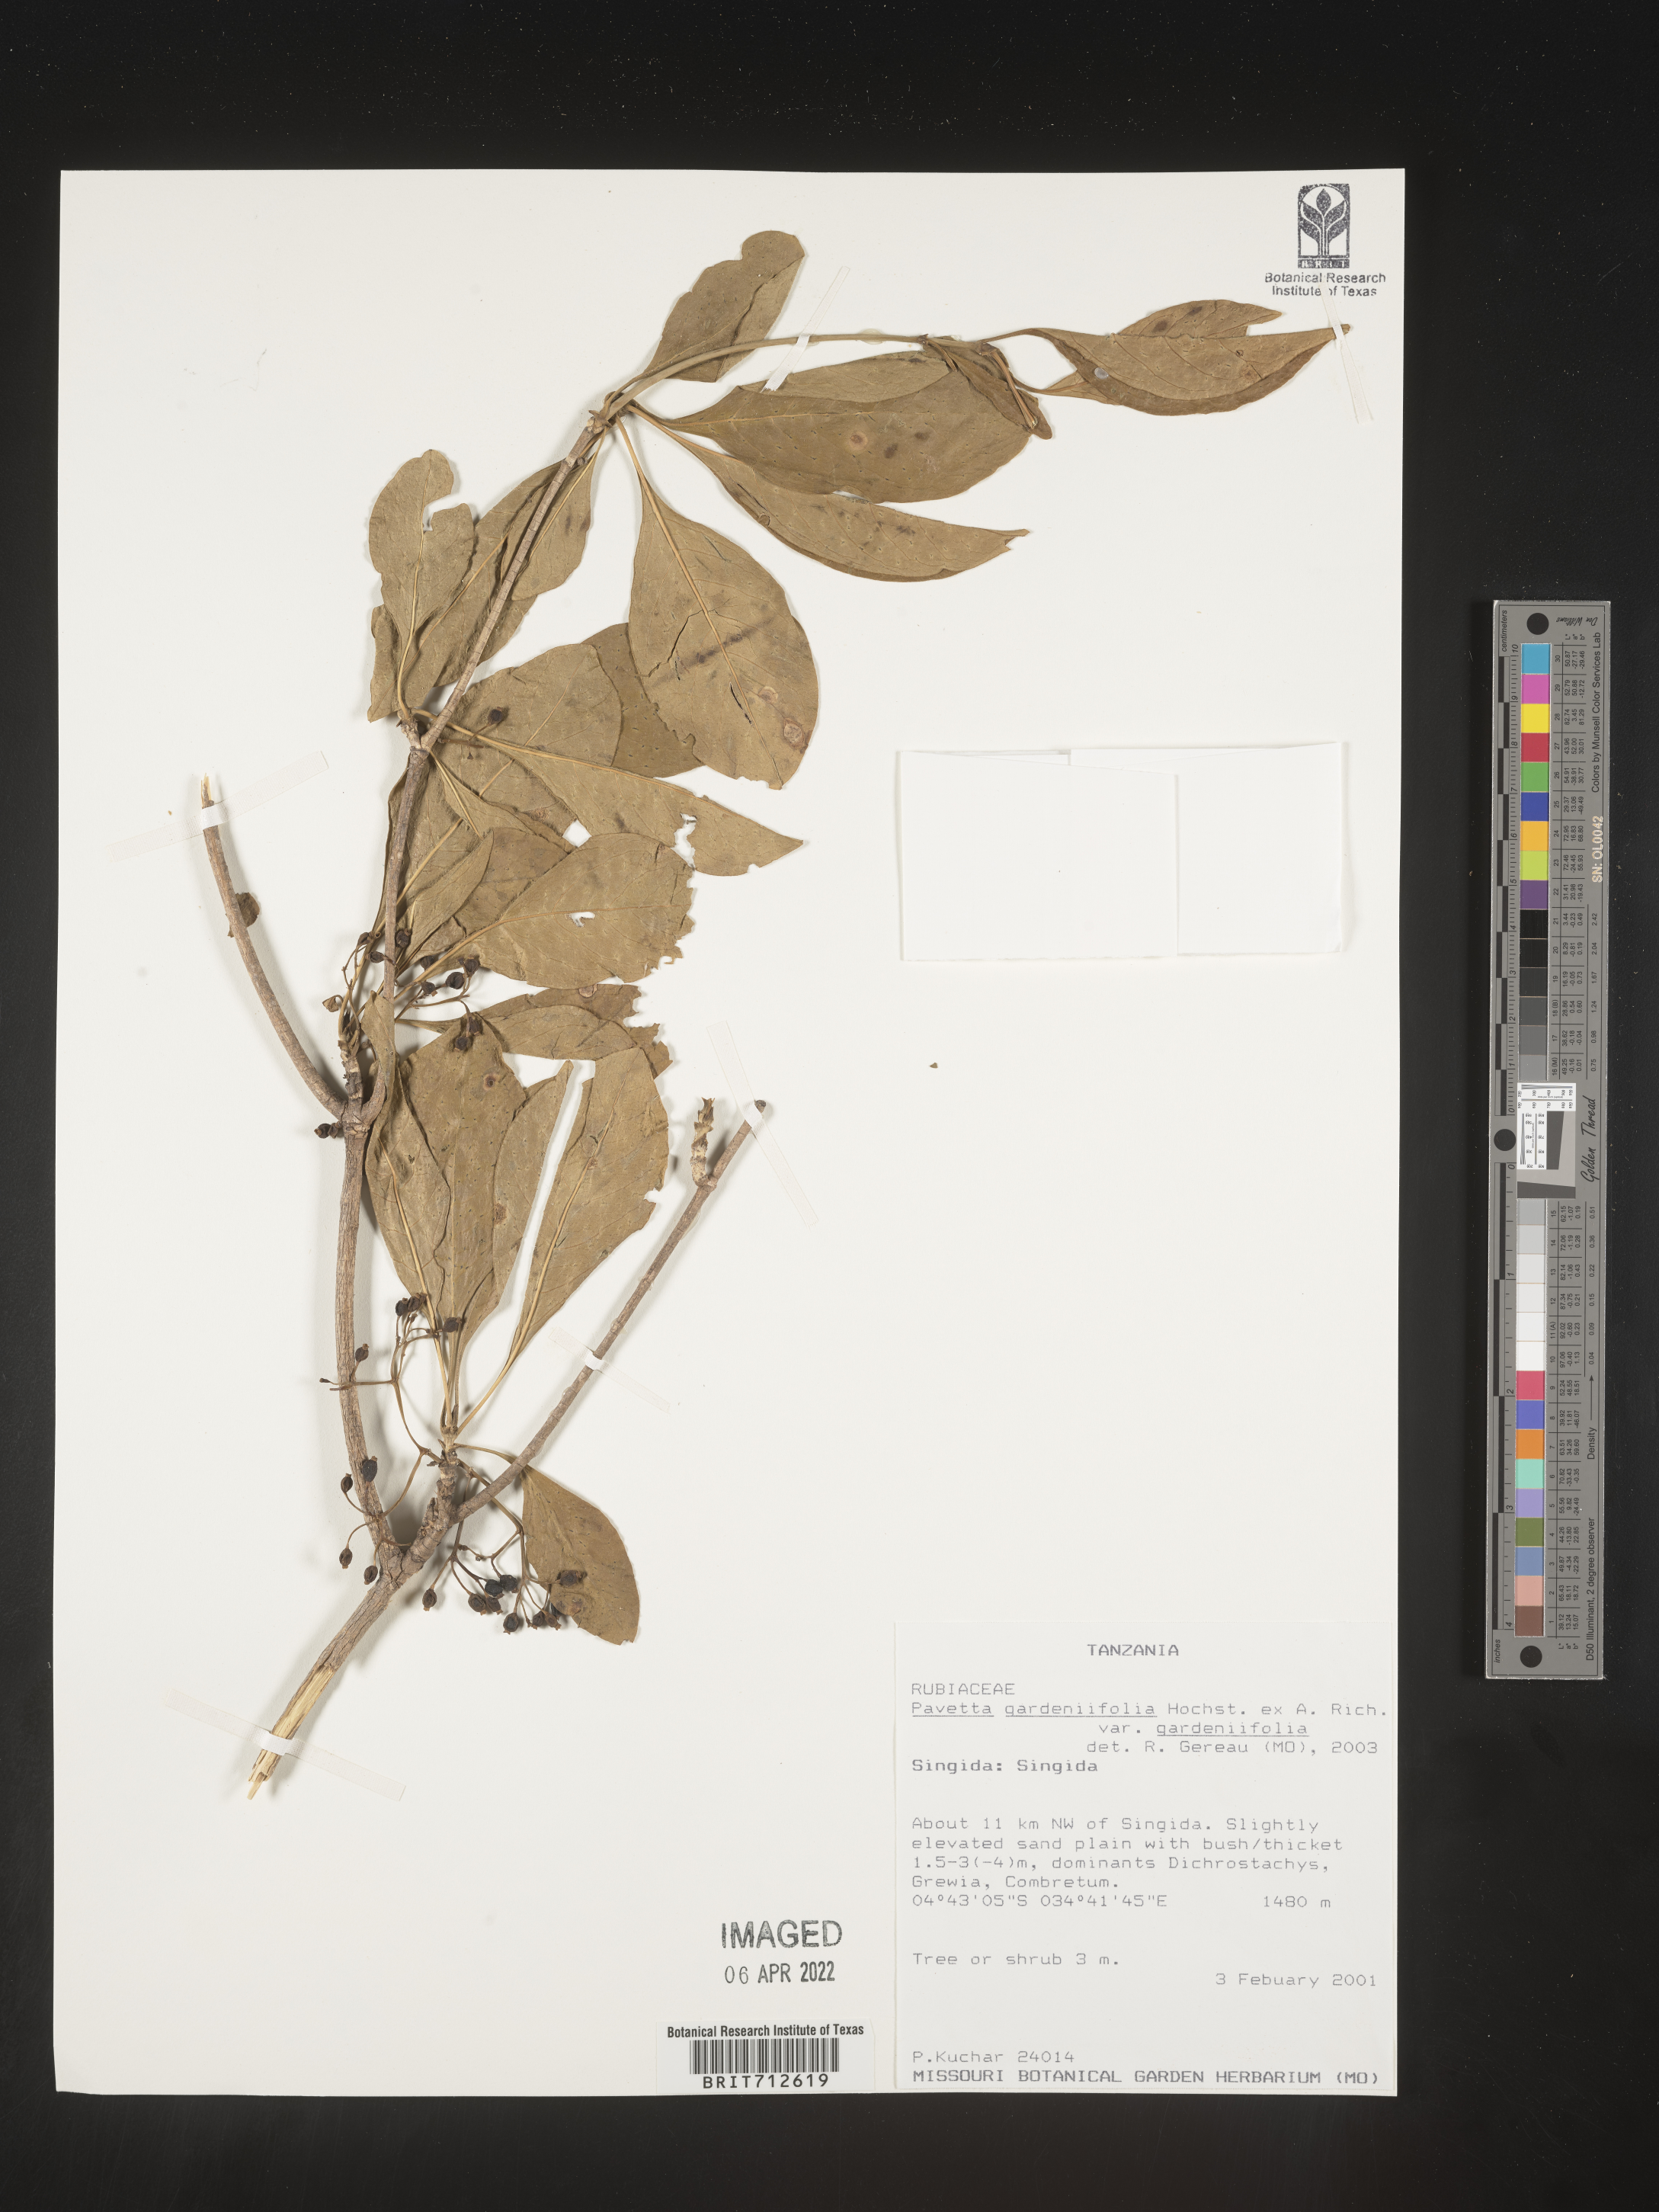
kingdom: Plantae
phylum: Tracheophyta
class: Magnoliopsida
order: Gentianales
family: Rubiaceae
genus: Pavetta
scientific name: Pavetta
